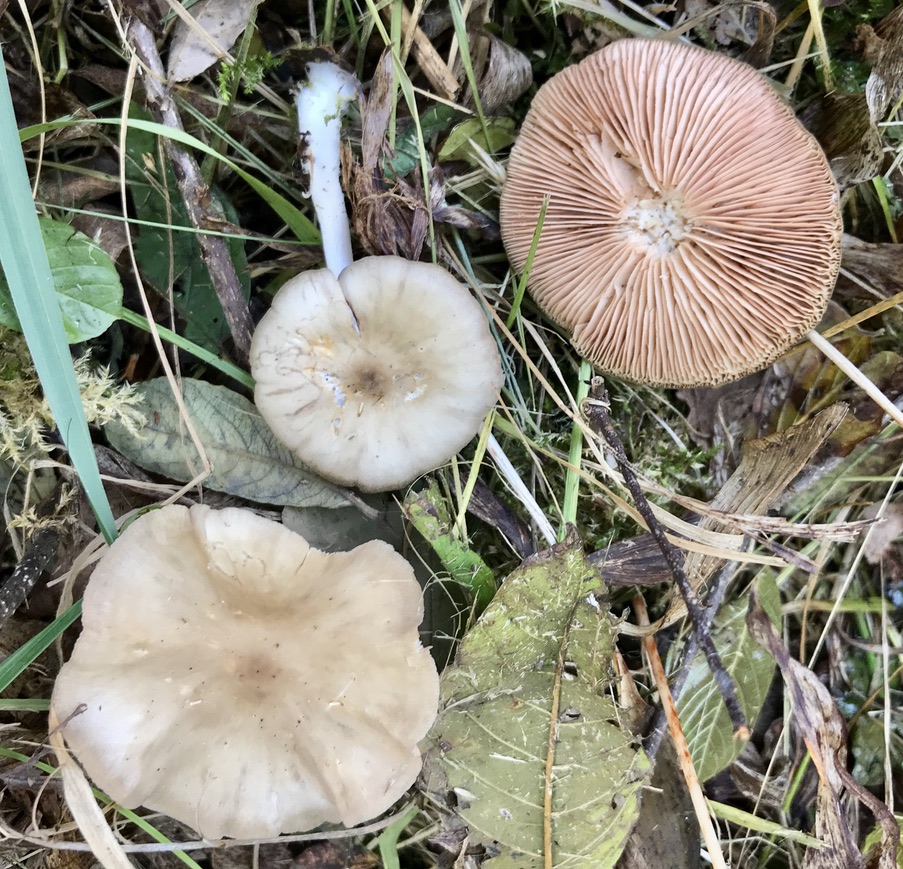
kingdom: Fungi
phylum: Basidiomycota
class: Agaricomycetes
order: Agaricales
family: Entolomataceae
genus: Entoloma
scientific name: Entoloma
